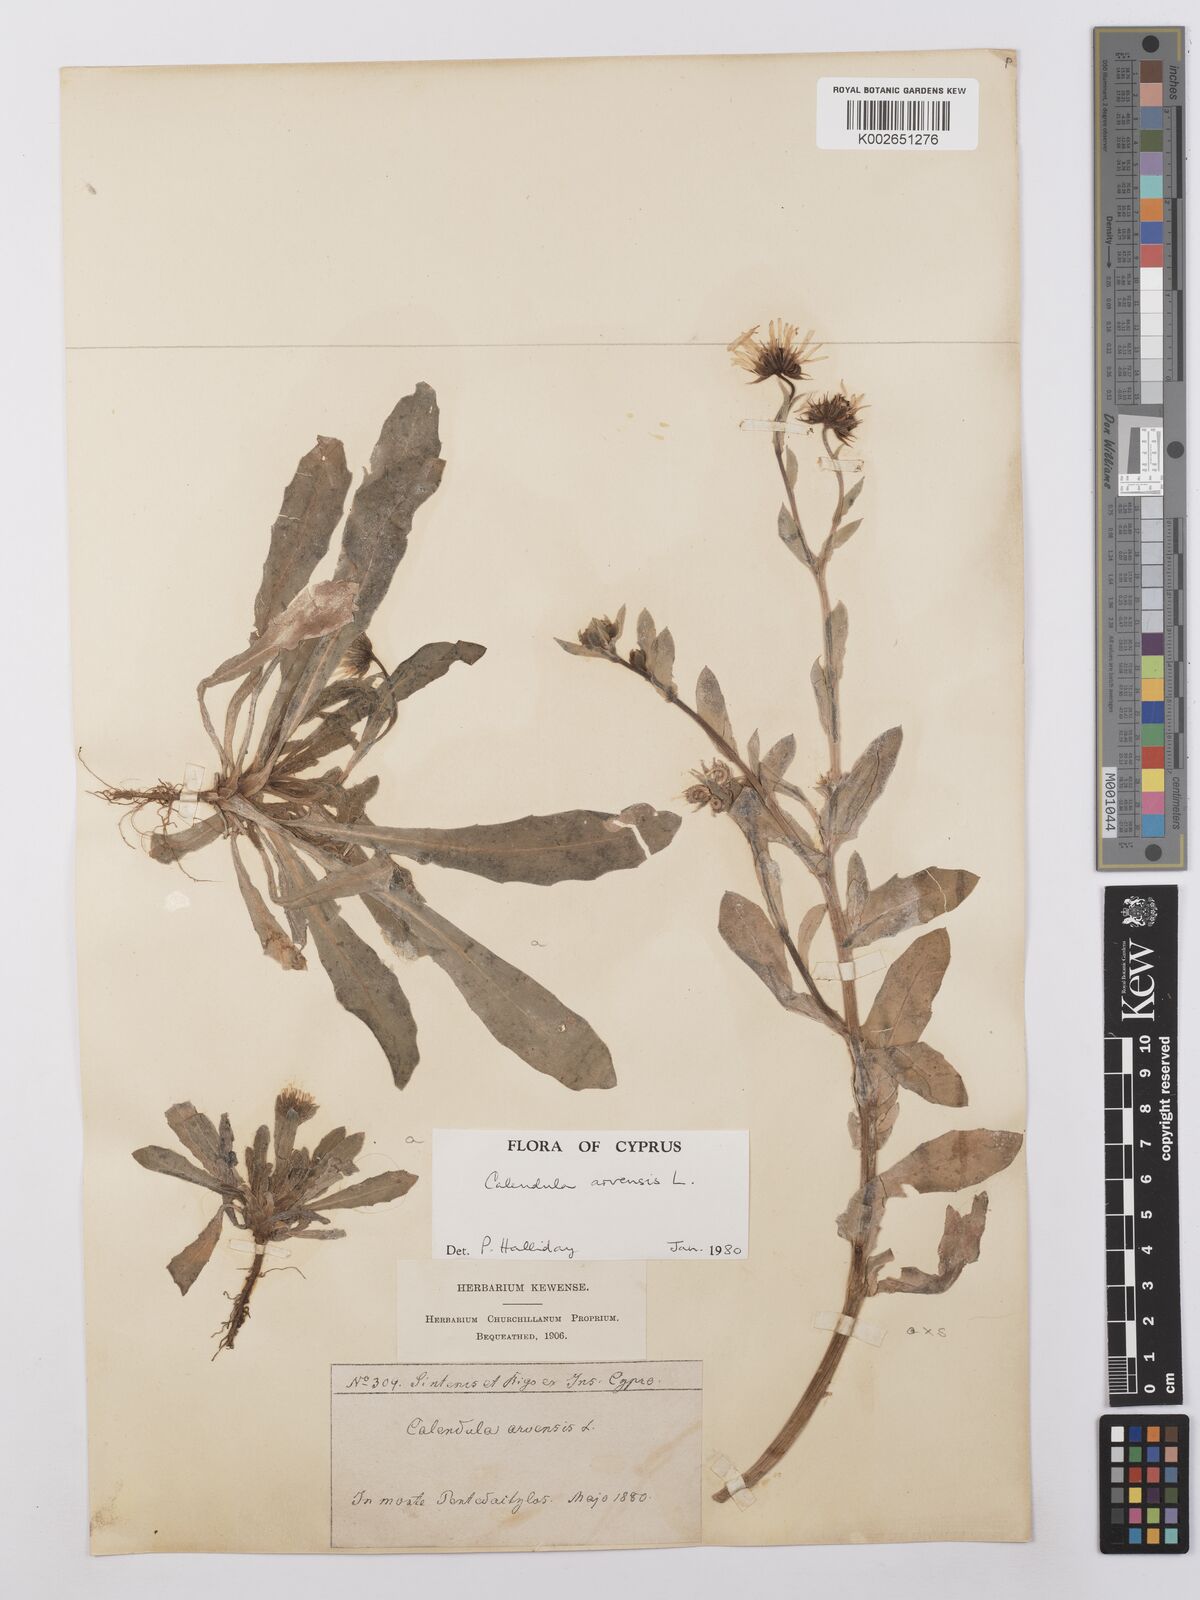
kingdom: Plantae
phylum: Tracheophyta
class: Magnoliopsida
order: Asterales
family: Asteraceae
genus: Calendula
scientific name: Calendula arvensis
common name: Field marigold
